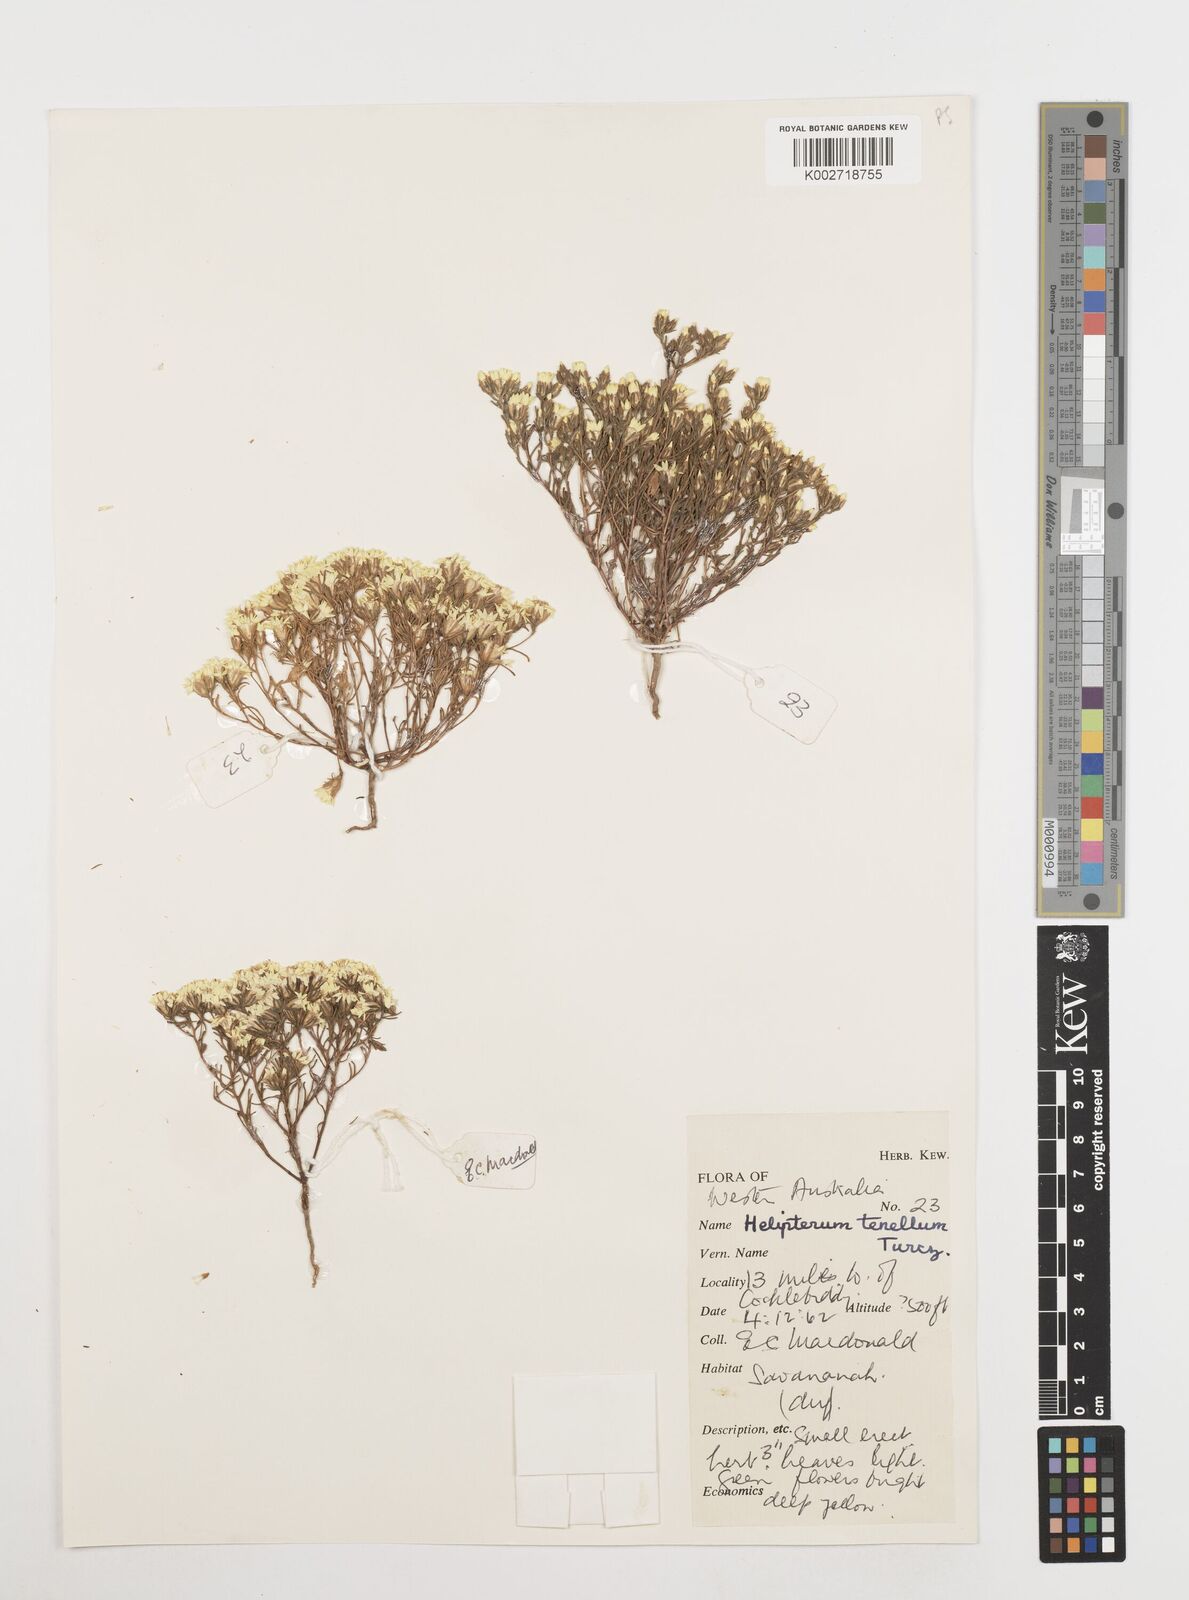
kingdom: Plantae
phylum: Tracheophyta
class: Magnoliopsida
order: Asterales
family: Asteraceae
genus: Erymophyllum
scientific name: Erymophyllum tenellum
